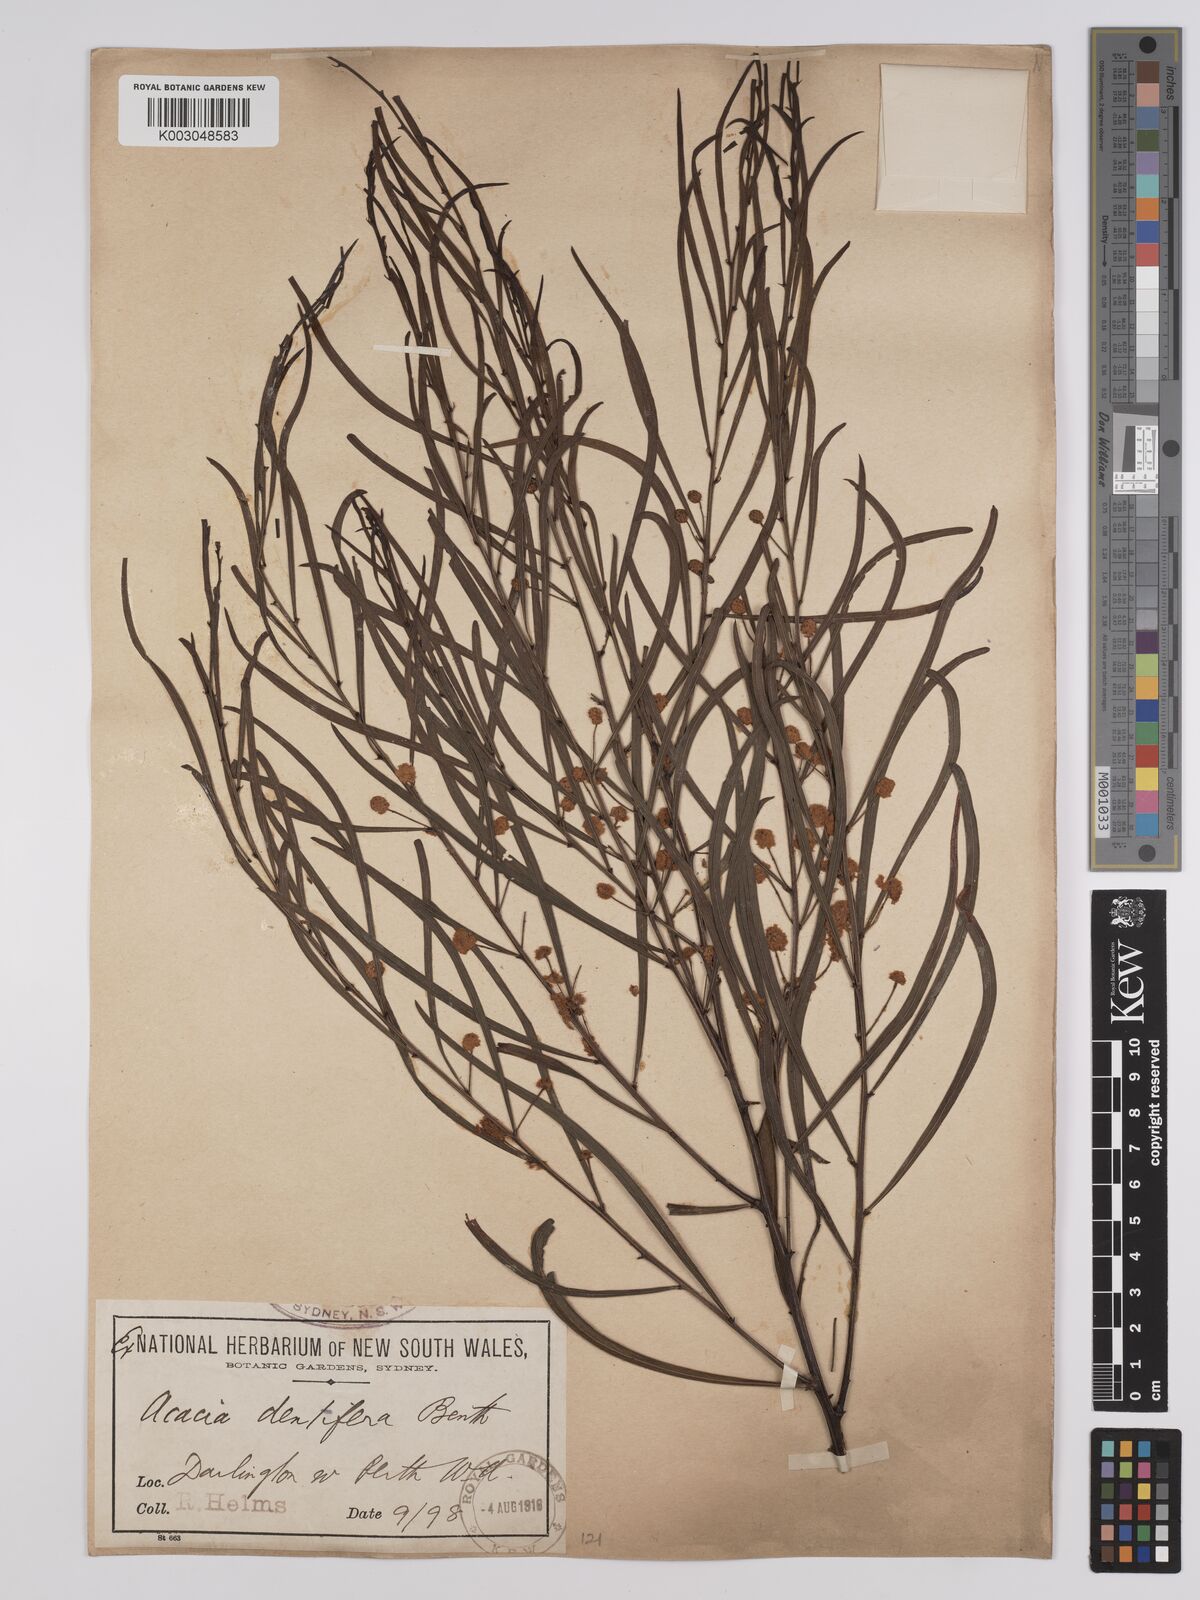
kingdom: Plantae
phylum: Tracheophyta
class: Magnoliopsida
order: Fabales
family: Fabaceae
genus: Acacia
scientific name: Acacia dentifera
